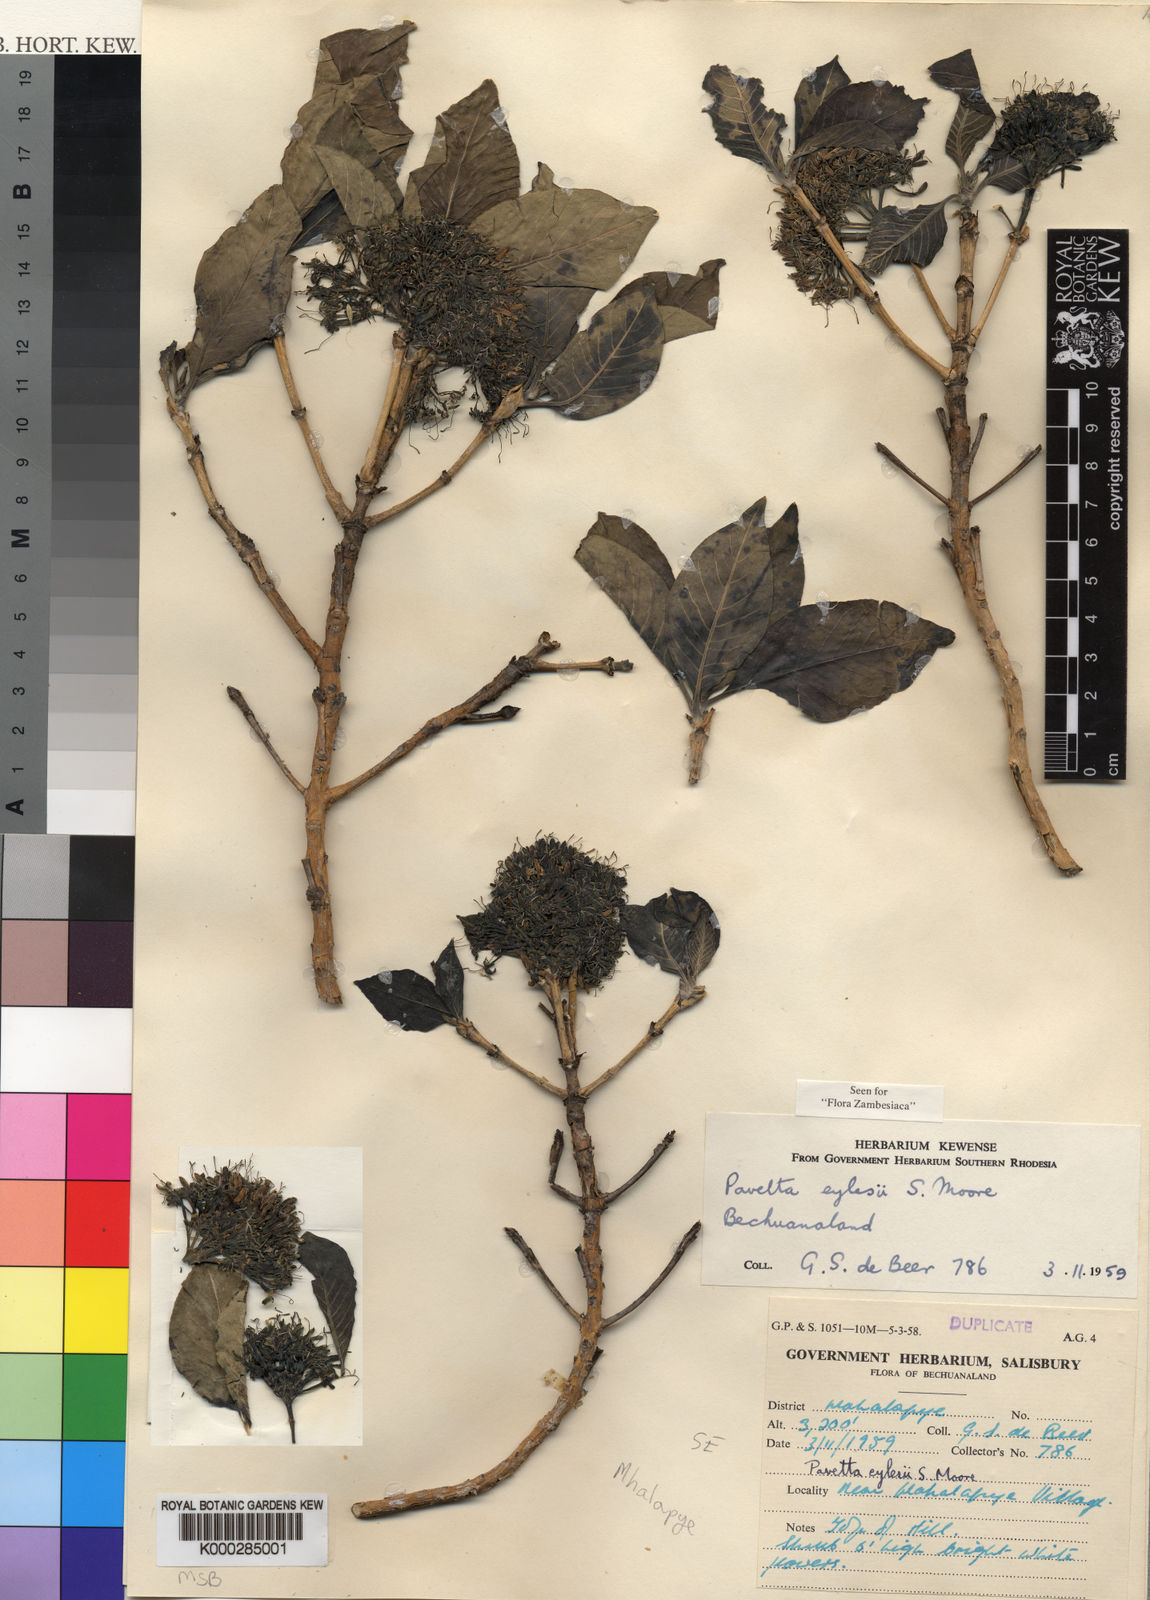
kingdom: Plantae
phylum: Tracheophyta
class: Magnoliopsida
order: Gentianales
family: Rubiaceae
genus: Pavetta
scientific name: Pavetta eylesii
